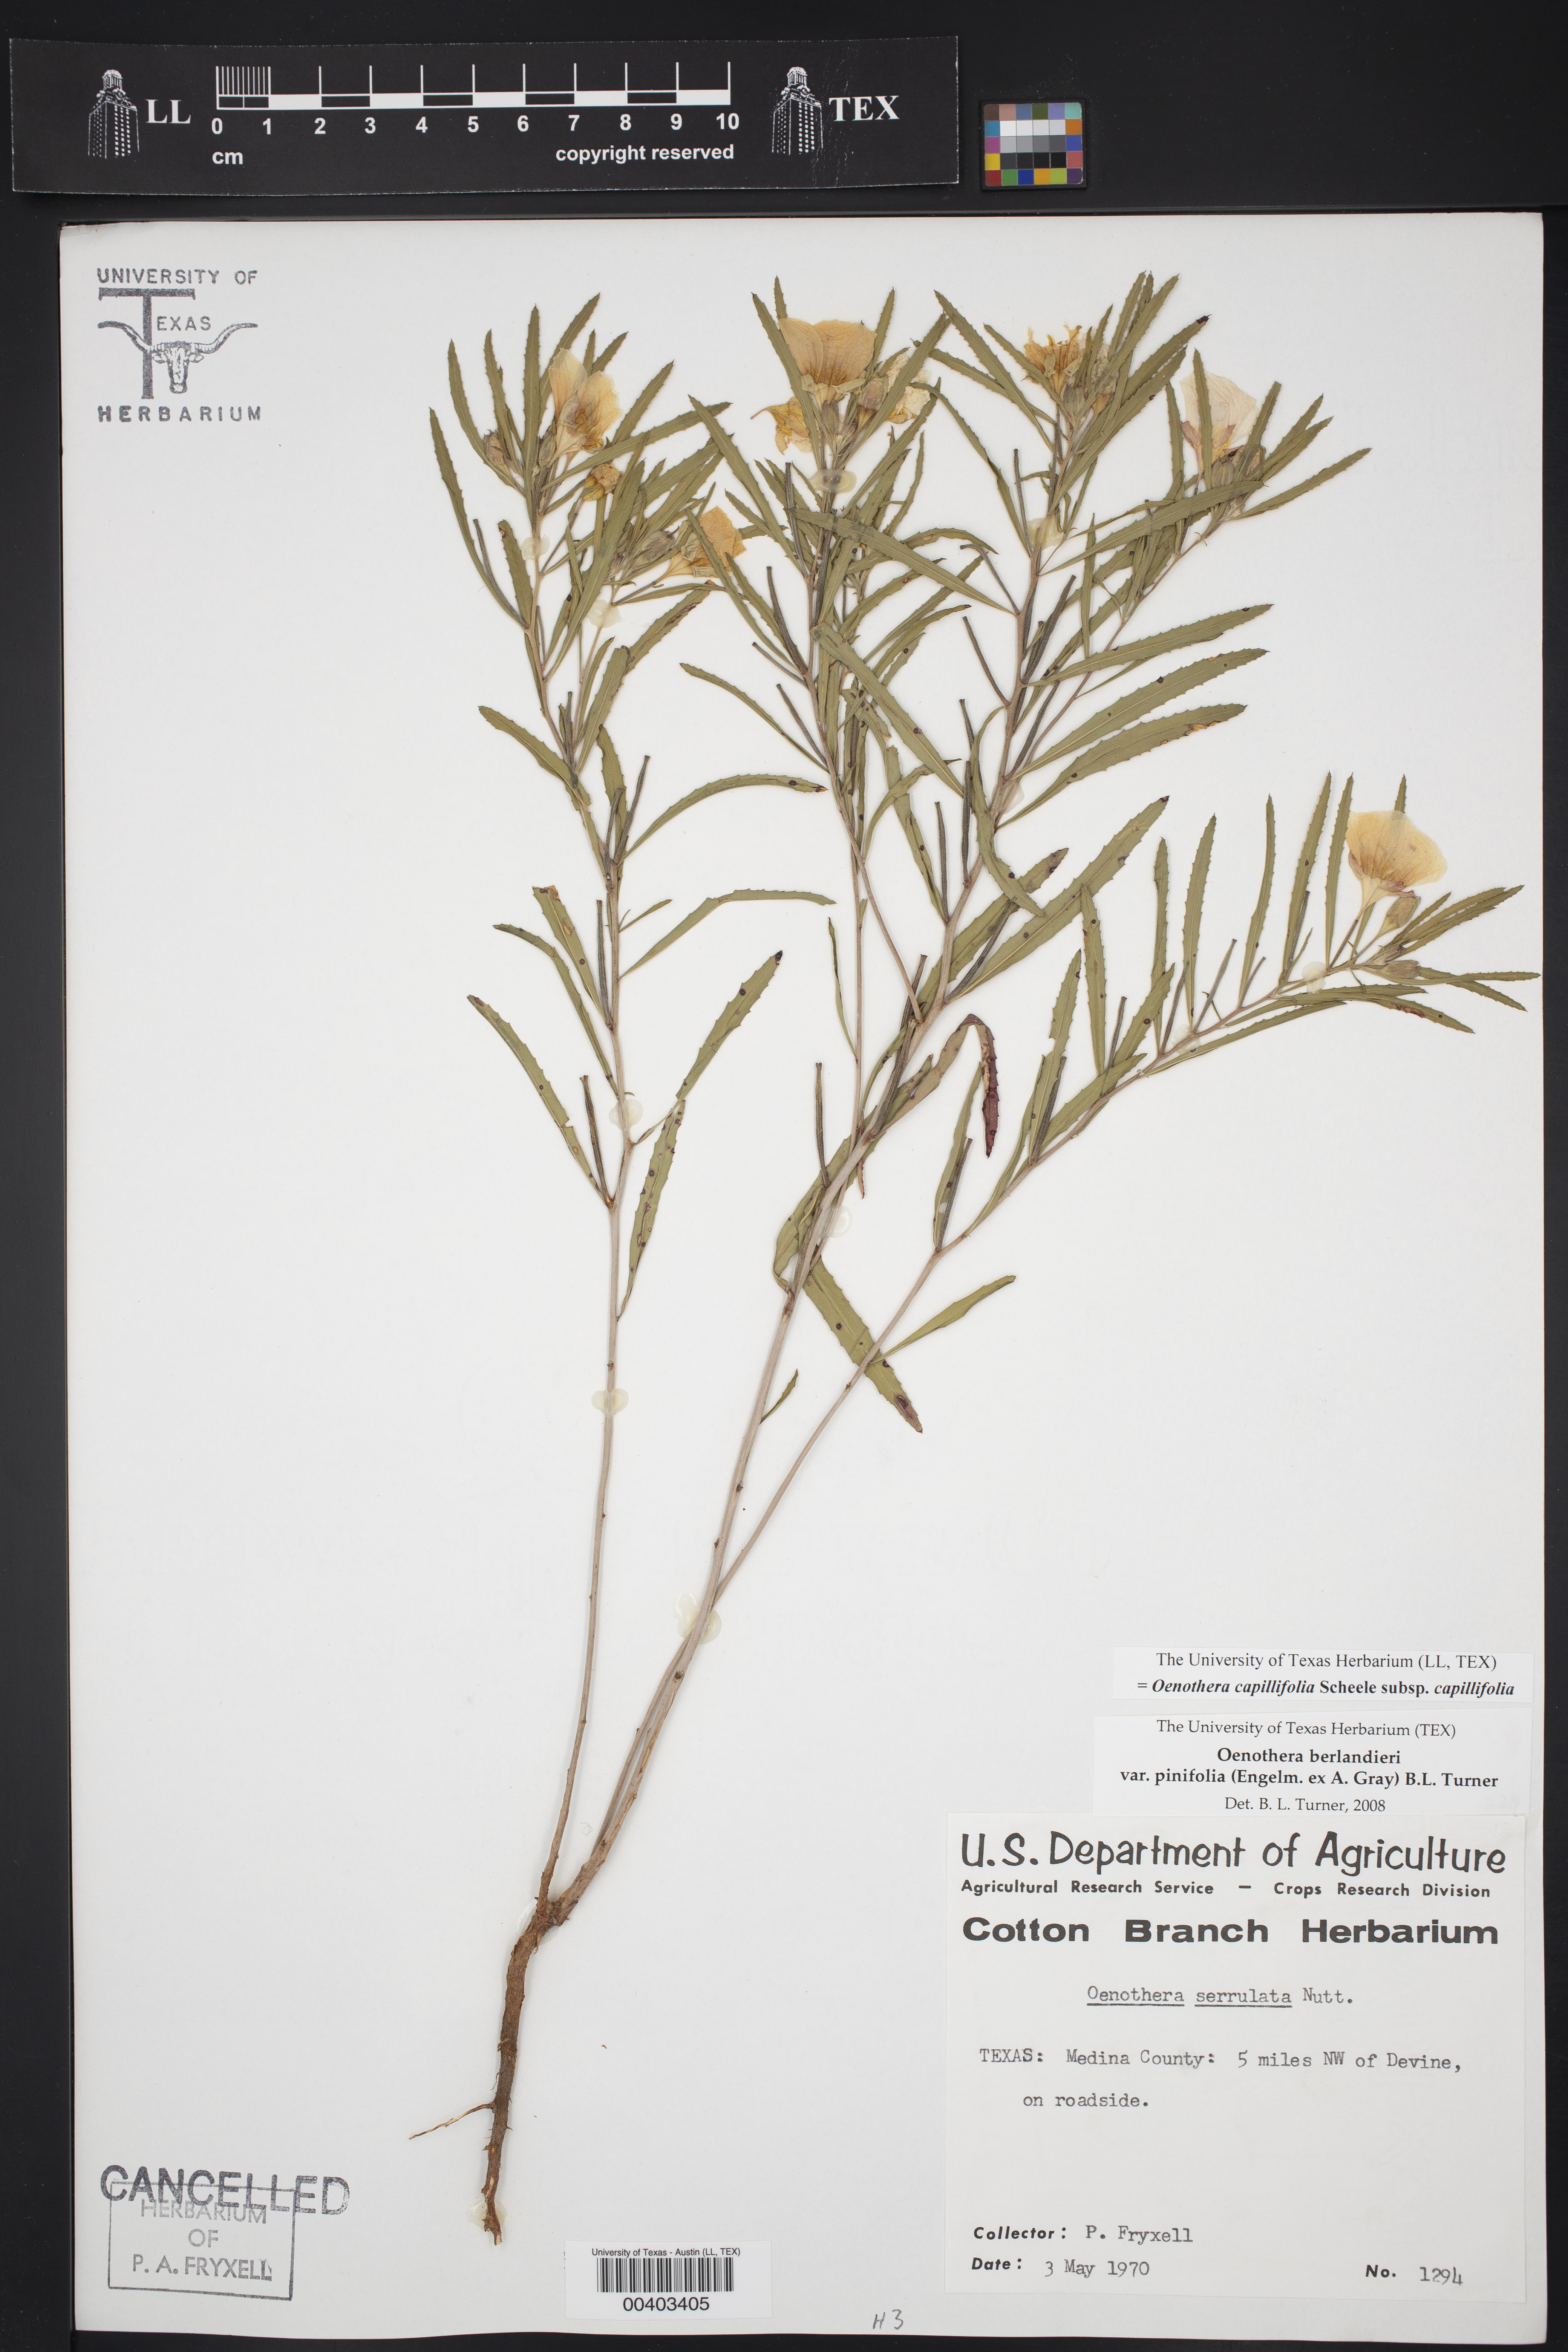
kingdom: Plantae
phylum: Tracheophyta
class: Magnoliopsida
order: Myrtales
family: Onagraceae
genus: Oenothera
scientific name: Oenothera capillifolia
